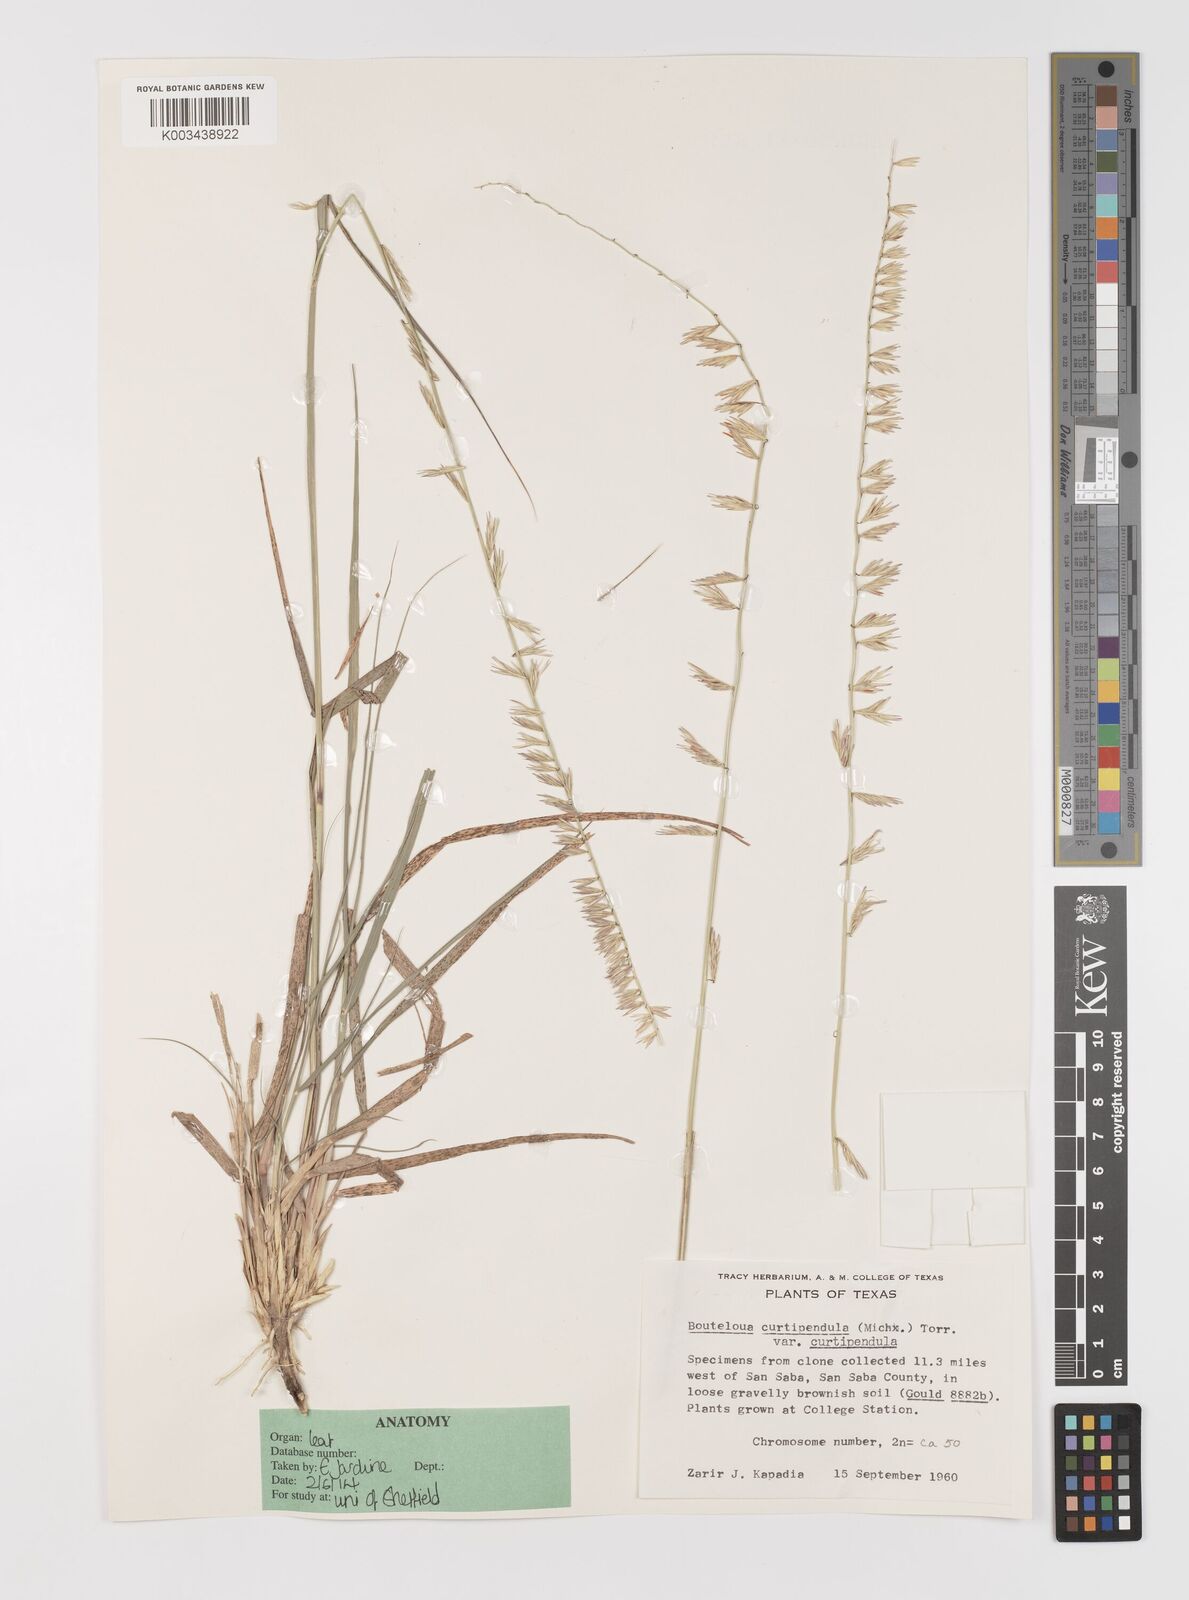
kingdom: Plantae
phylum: Tracheophyta
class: Liliopsida
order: Poales
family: Poaceae
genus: Bouteloua
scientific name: Bouteloua curtipendula
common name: Side-oats grama
